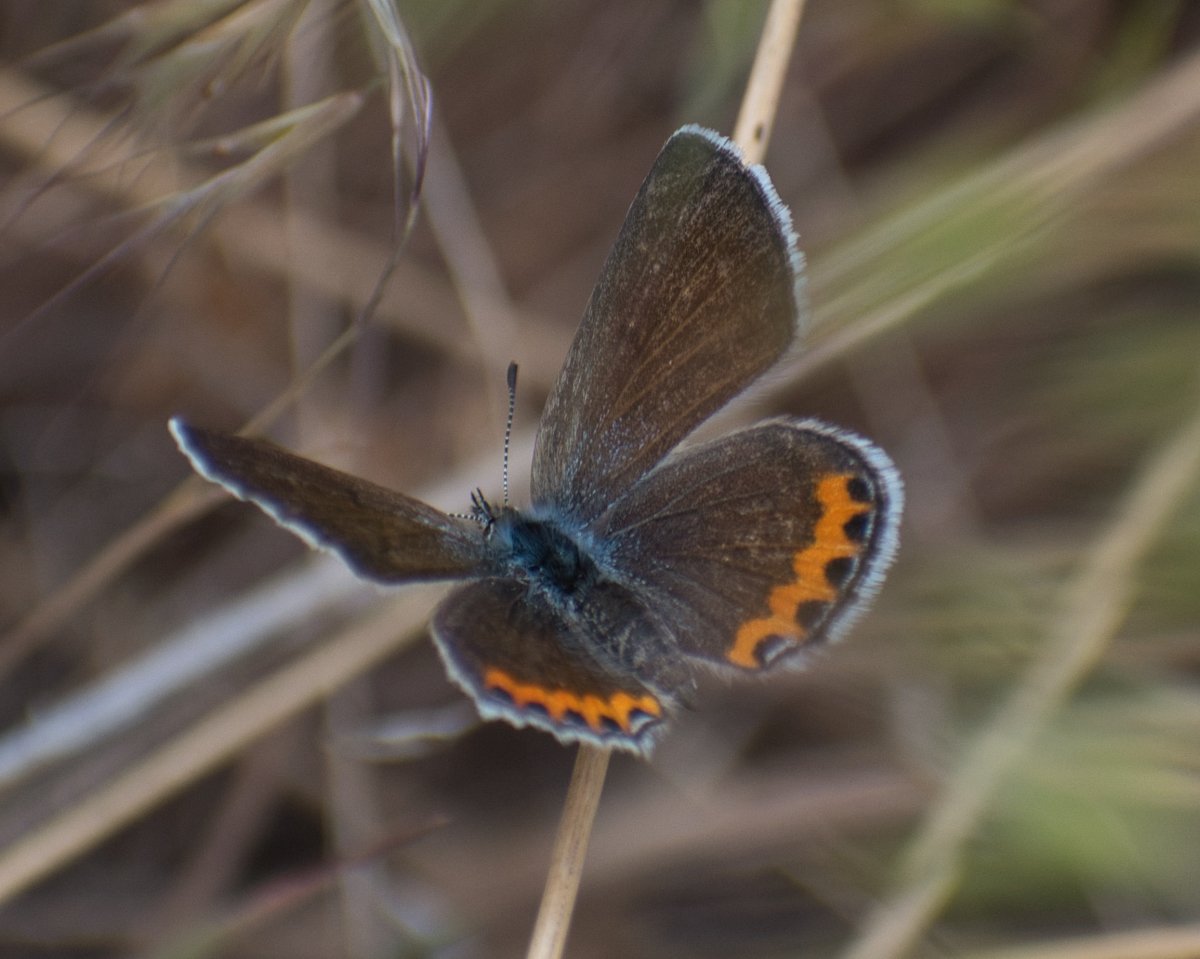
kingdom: Animalia
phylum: Arthropoda
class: Insecta
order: Lepidoptera
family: Lycaenidae
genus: Plebejus
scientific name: Plebejus lupini
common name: Lupine Blue
